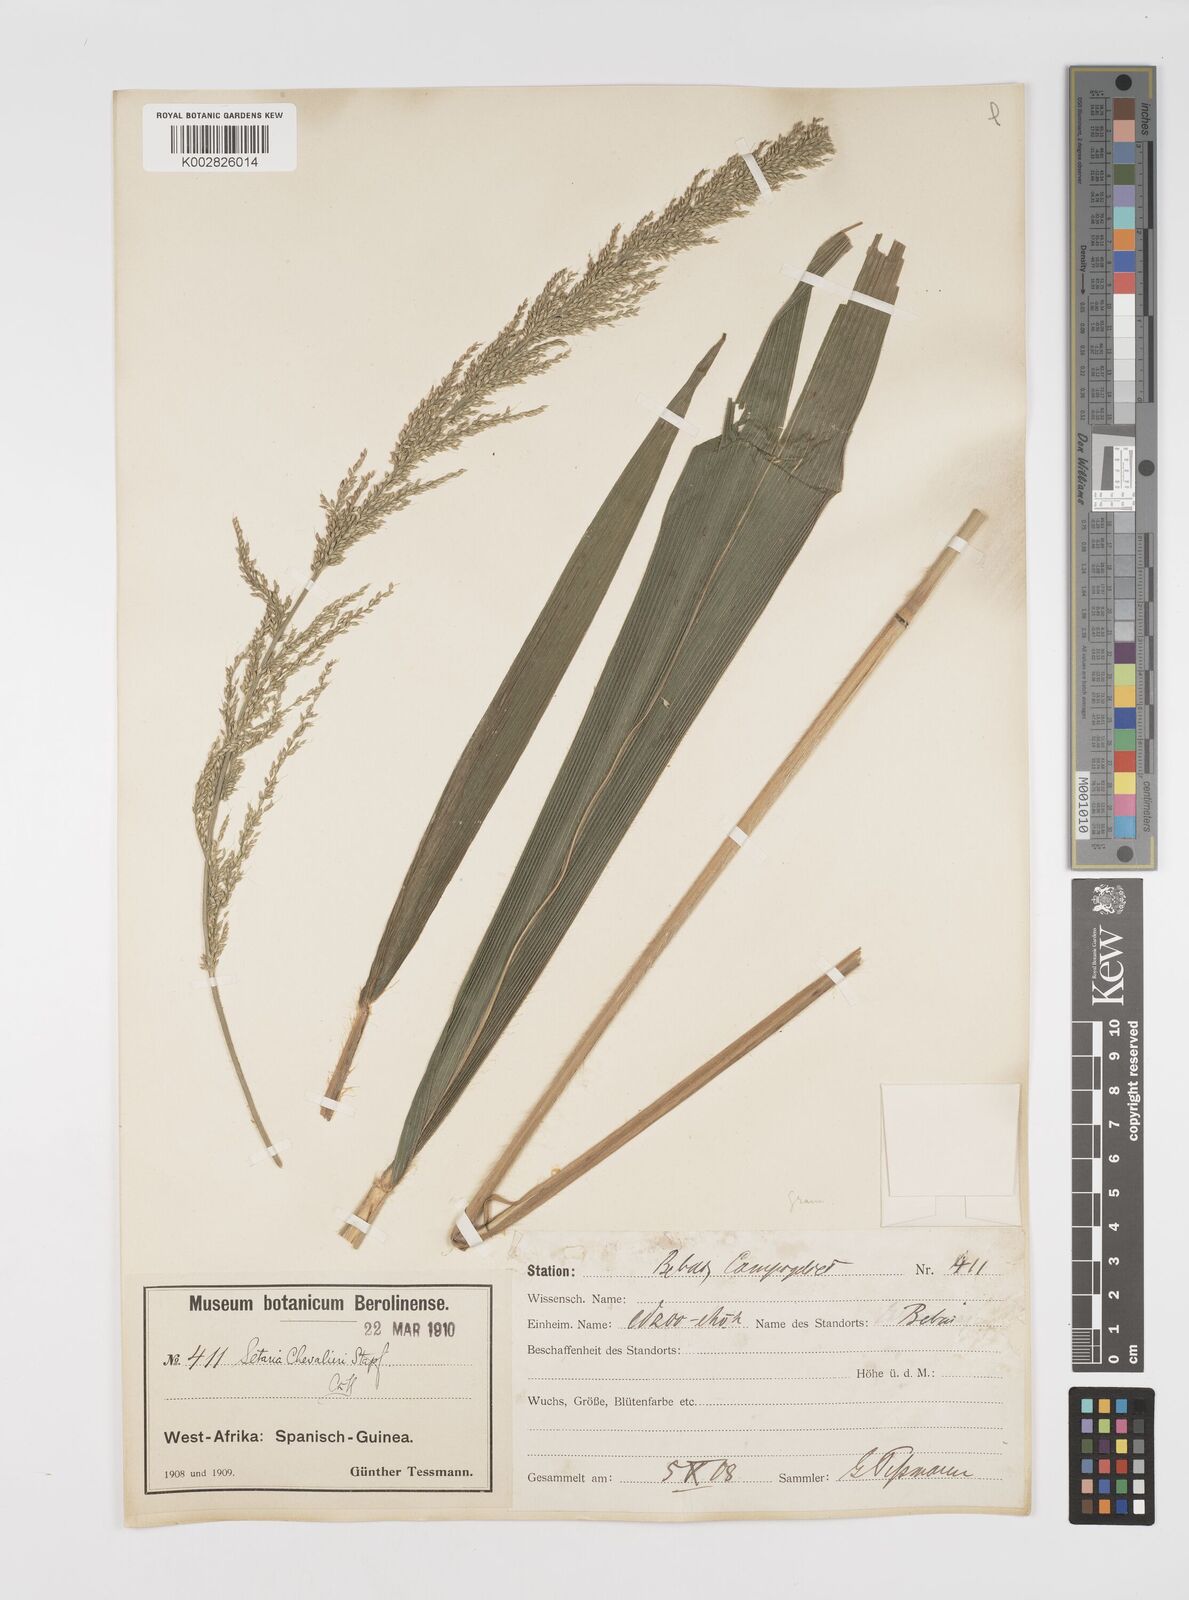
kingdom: Plantae
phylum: Tracheophyta
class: Liliopsida
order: Poales
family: Poaceae
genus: Setaria
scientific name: Setaria megaphylla
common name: Bigleaf bristlegrass
